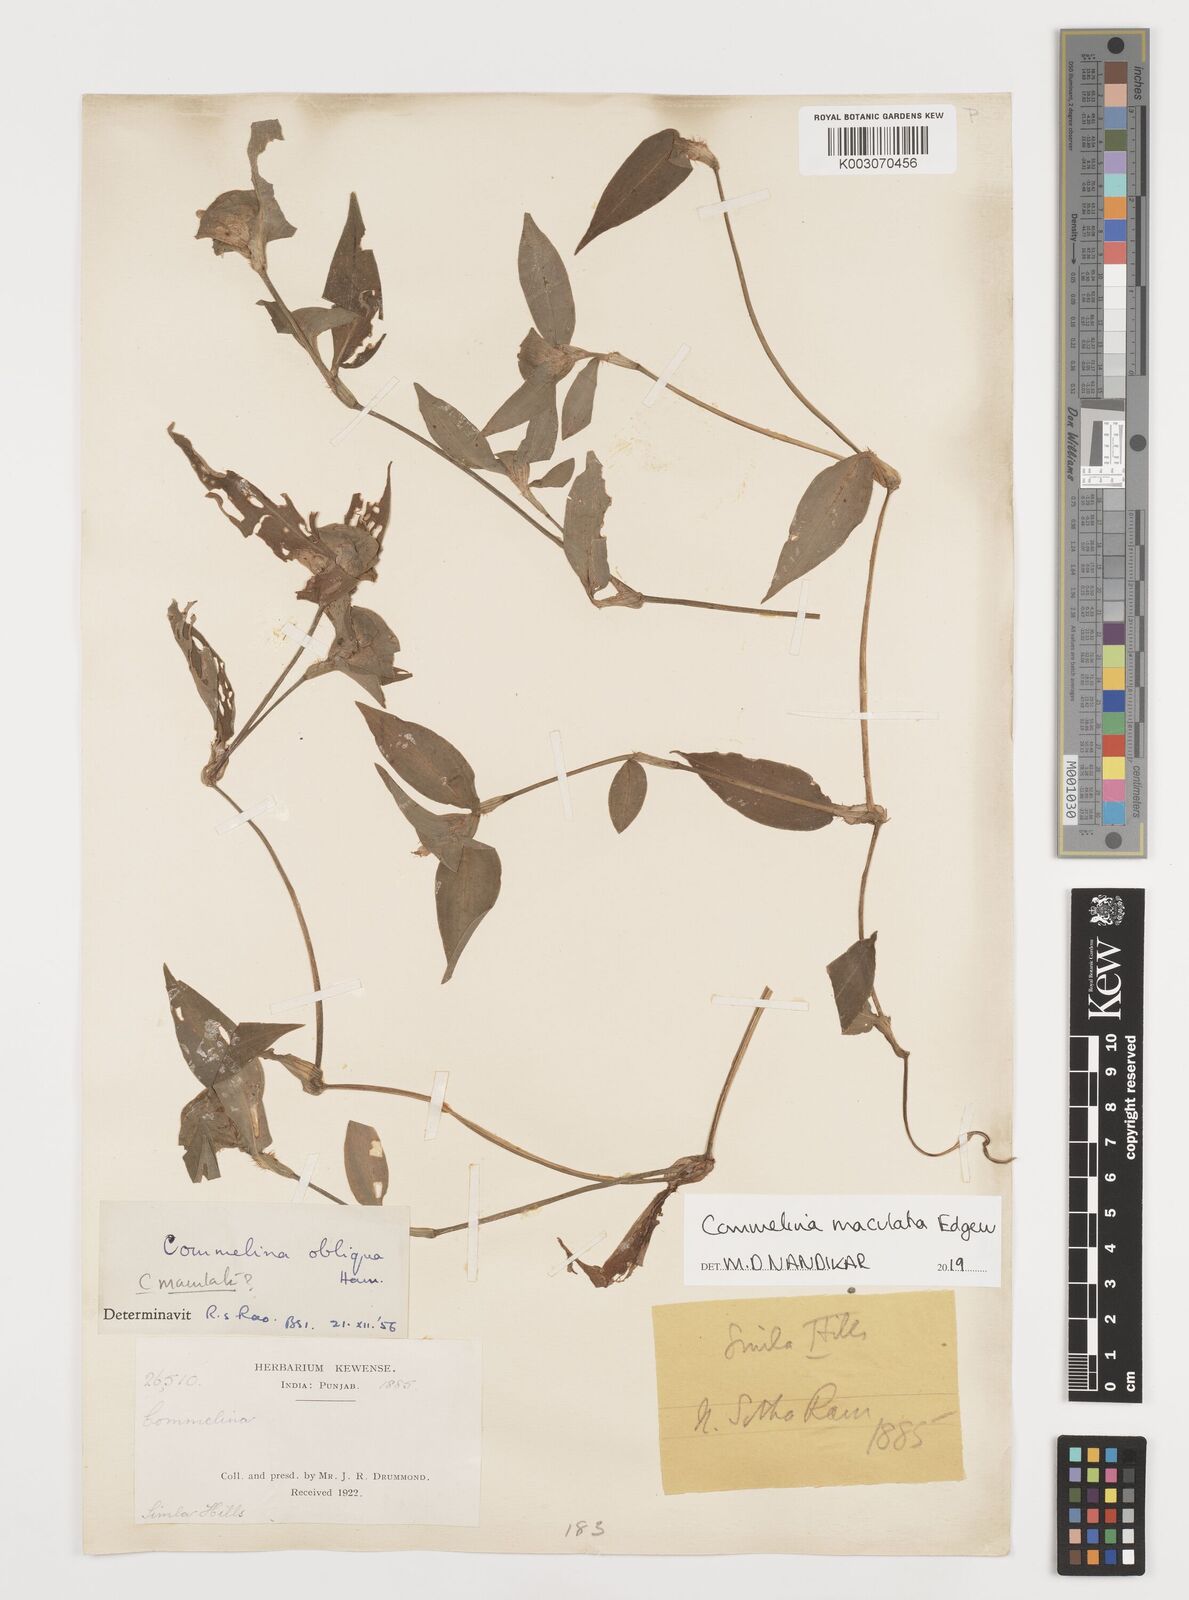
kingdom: Plantae
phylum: Tracheophyta
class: Liliopsida
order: Commelinales
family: Commelinaceae
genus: Commelina
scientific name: Commelina maculata
